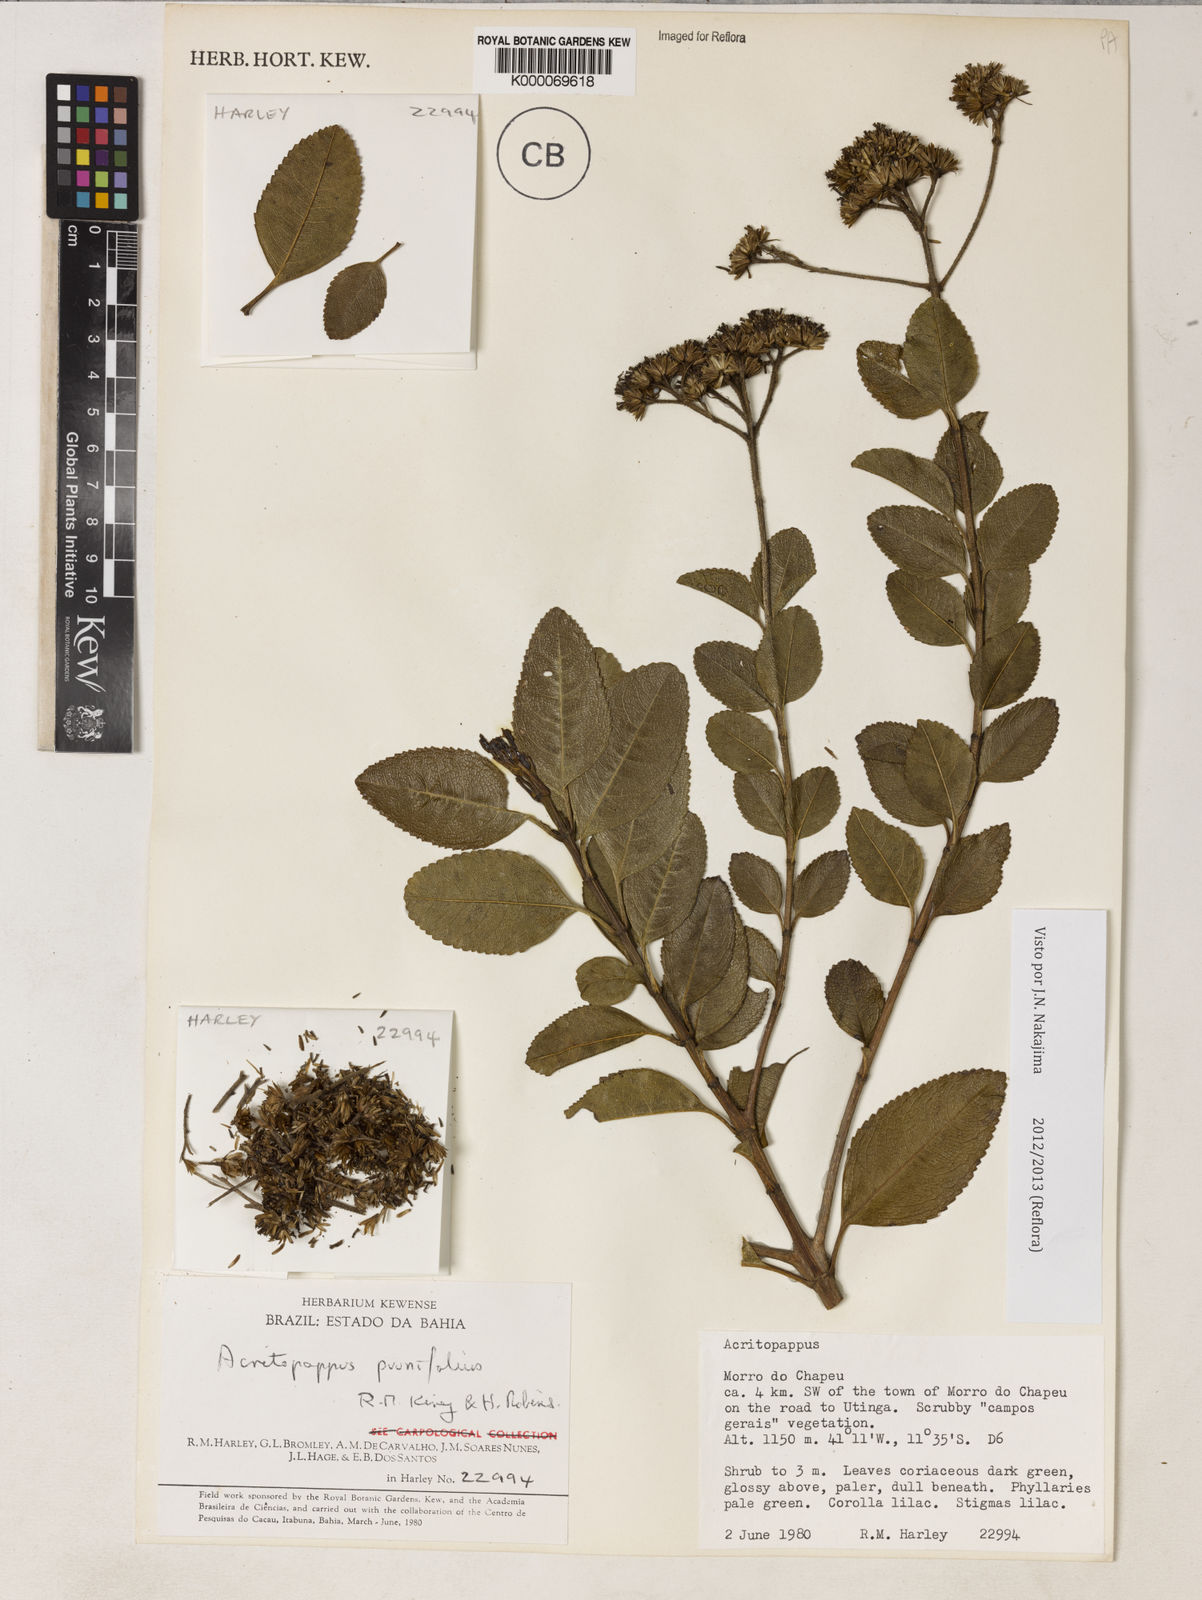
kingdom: Plantae
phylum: Tracheophyta
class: Magnoliopsida
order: Asterales
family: Asteraceae
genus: Acritopappus
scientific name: Acritopappus prunifolius
